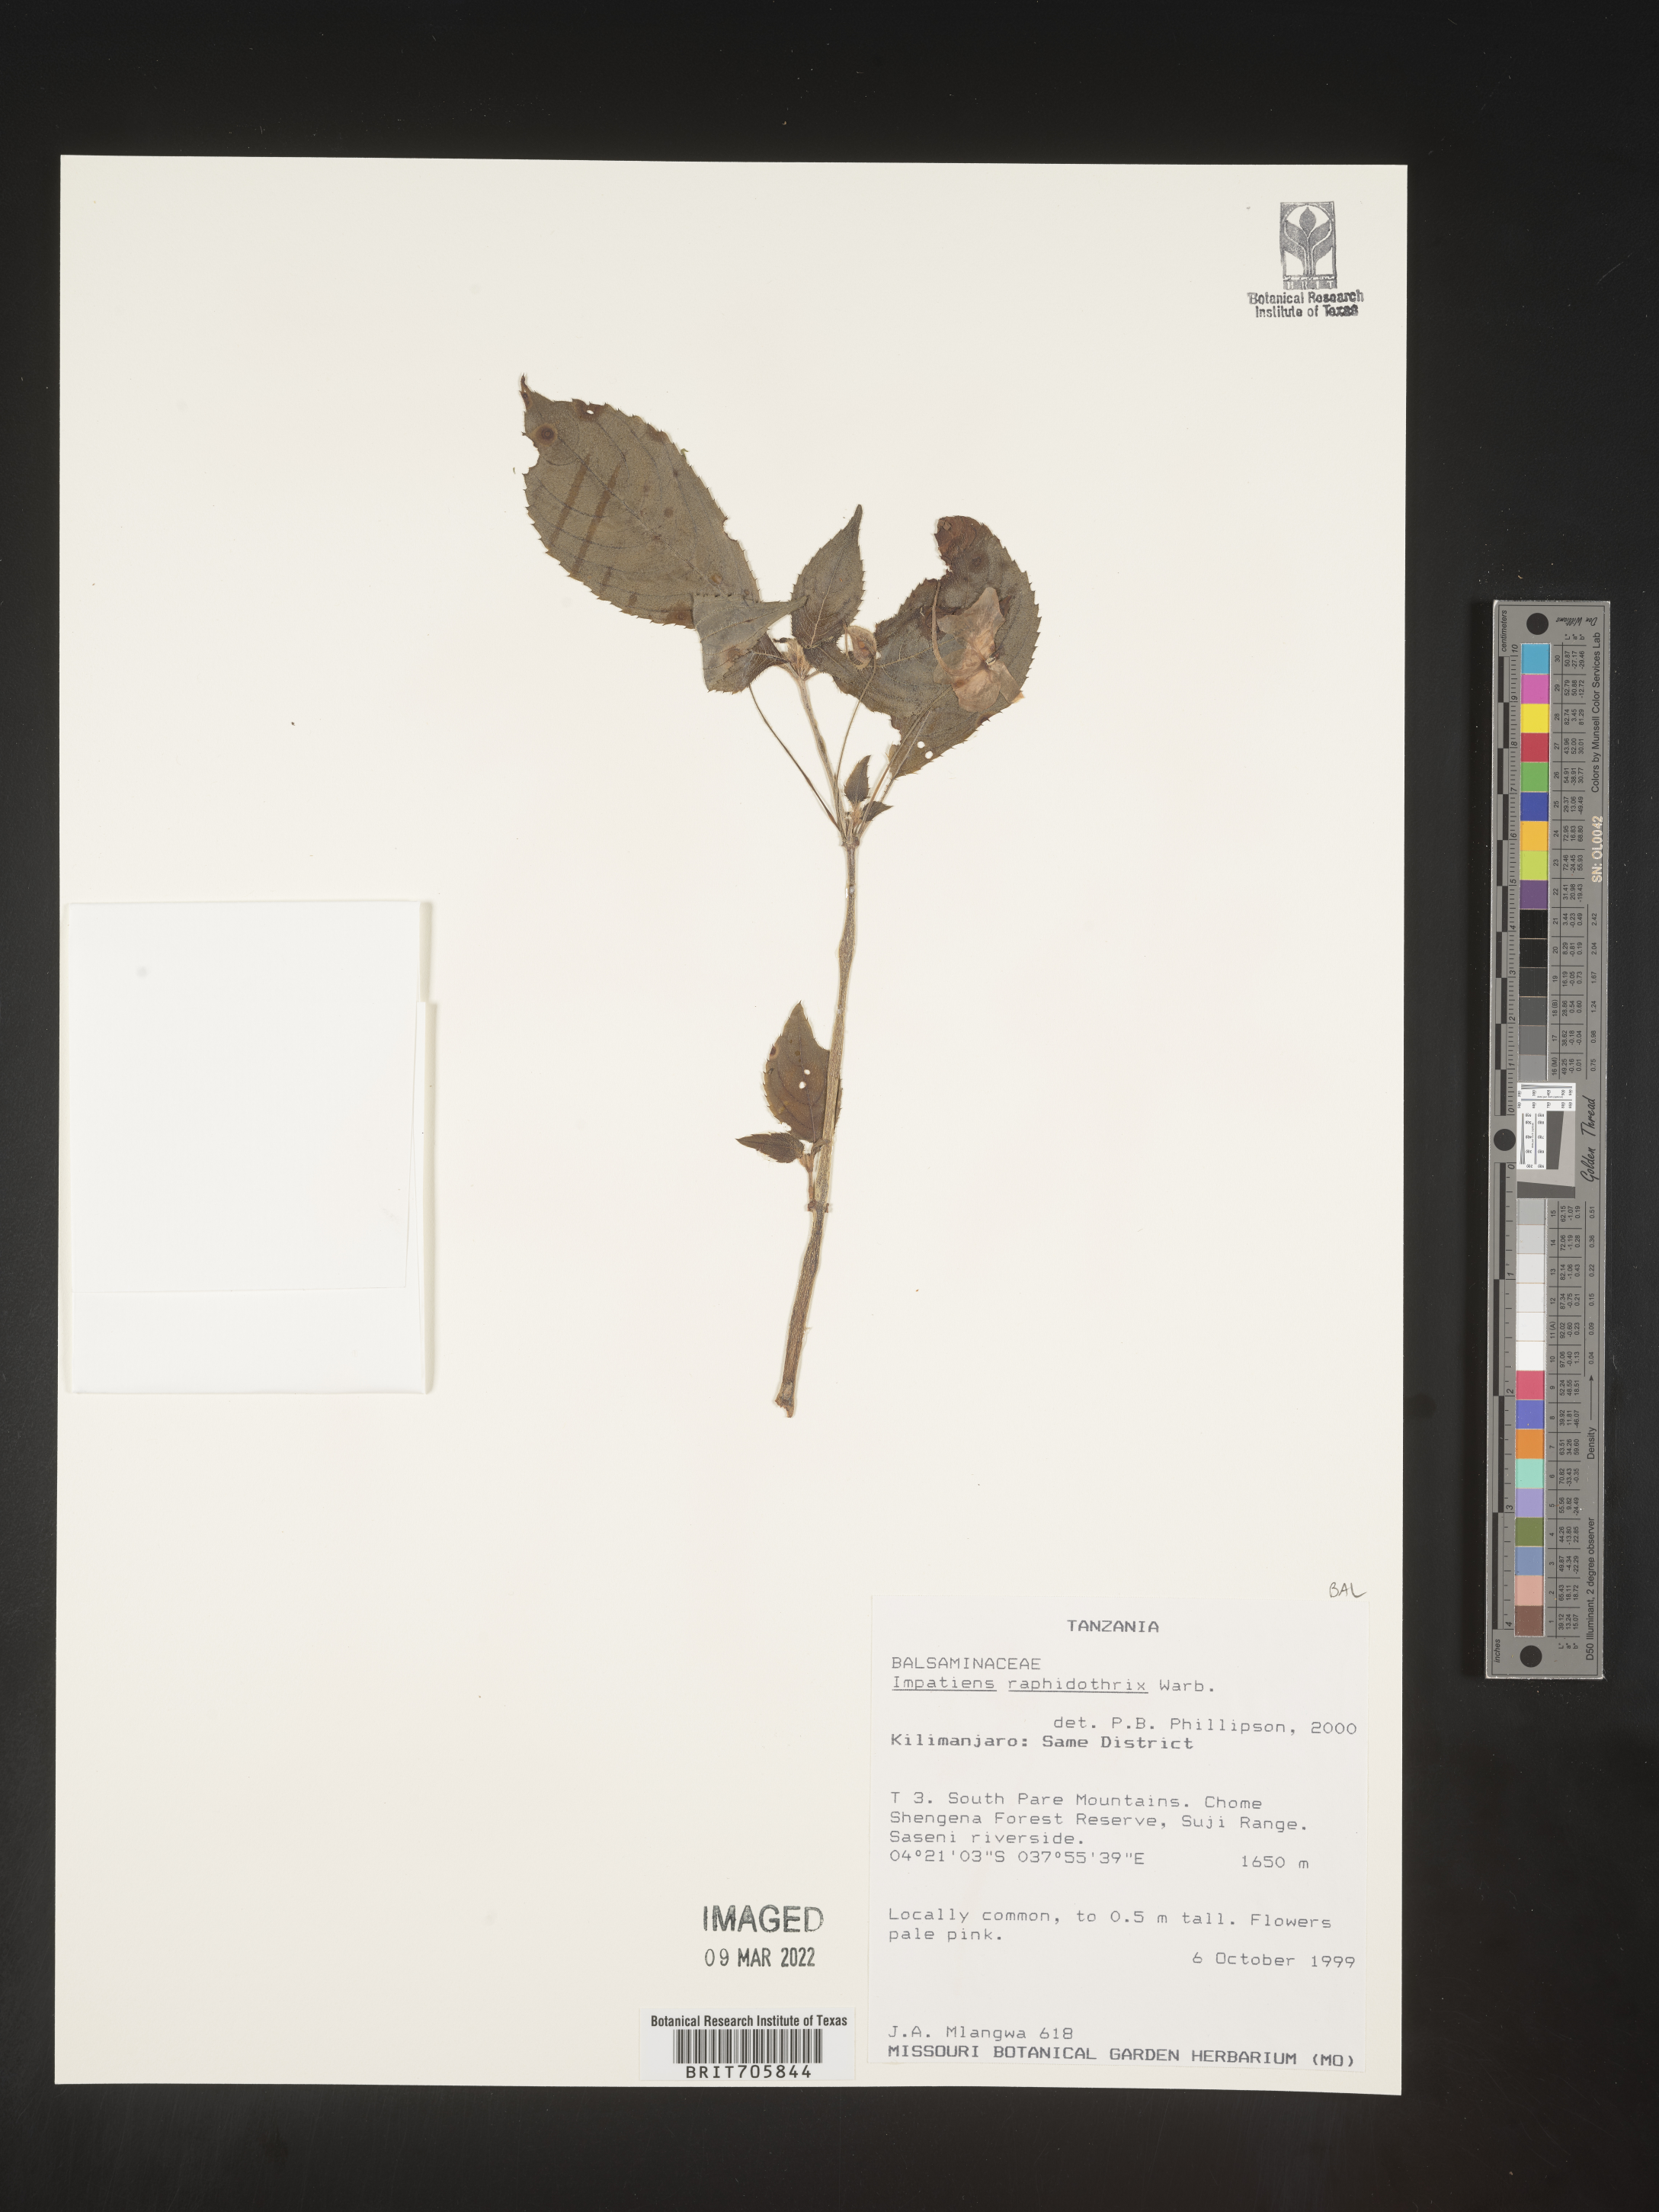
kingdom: Plantae
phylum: Tracheophyta
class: Magnoliopsida
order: Ericales
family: Balsaminaceae
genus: Impatiens
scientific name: Impatiens
